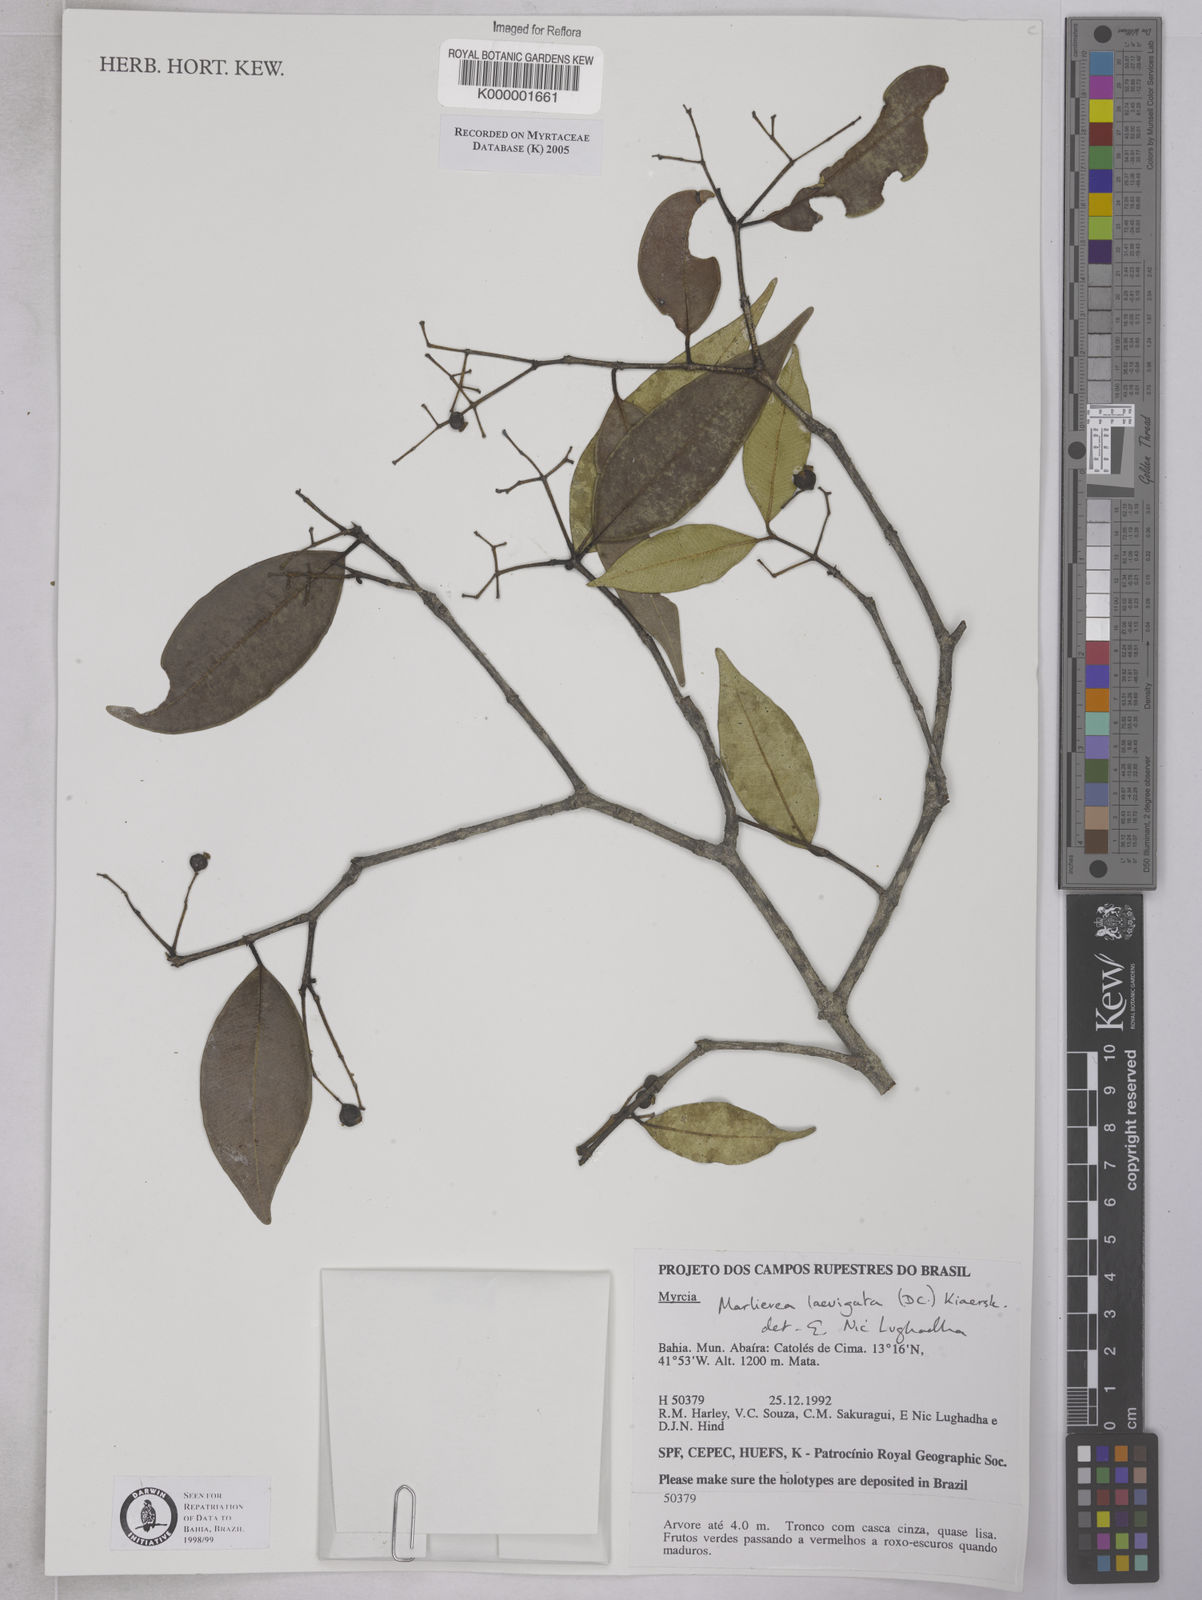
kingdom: Plantae
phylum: Tracheophyta
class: Magnoliopsida
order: Myrtales
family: Myrtaceae
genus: Myrcia
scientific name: Myrcia multipunctata
